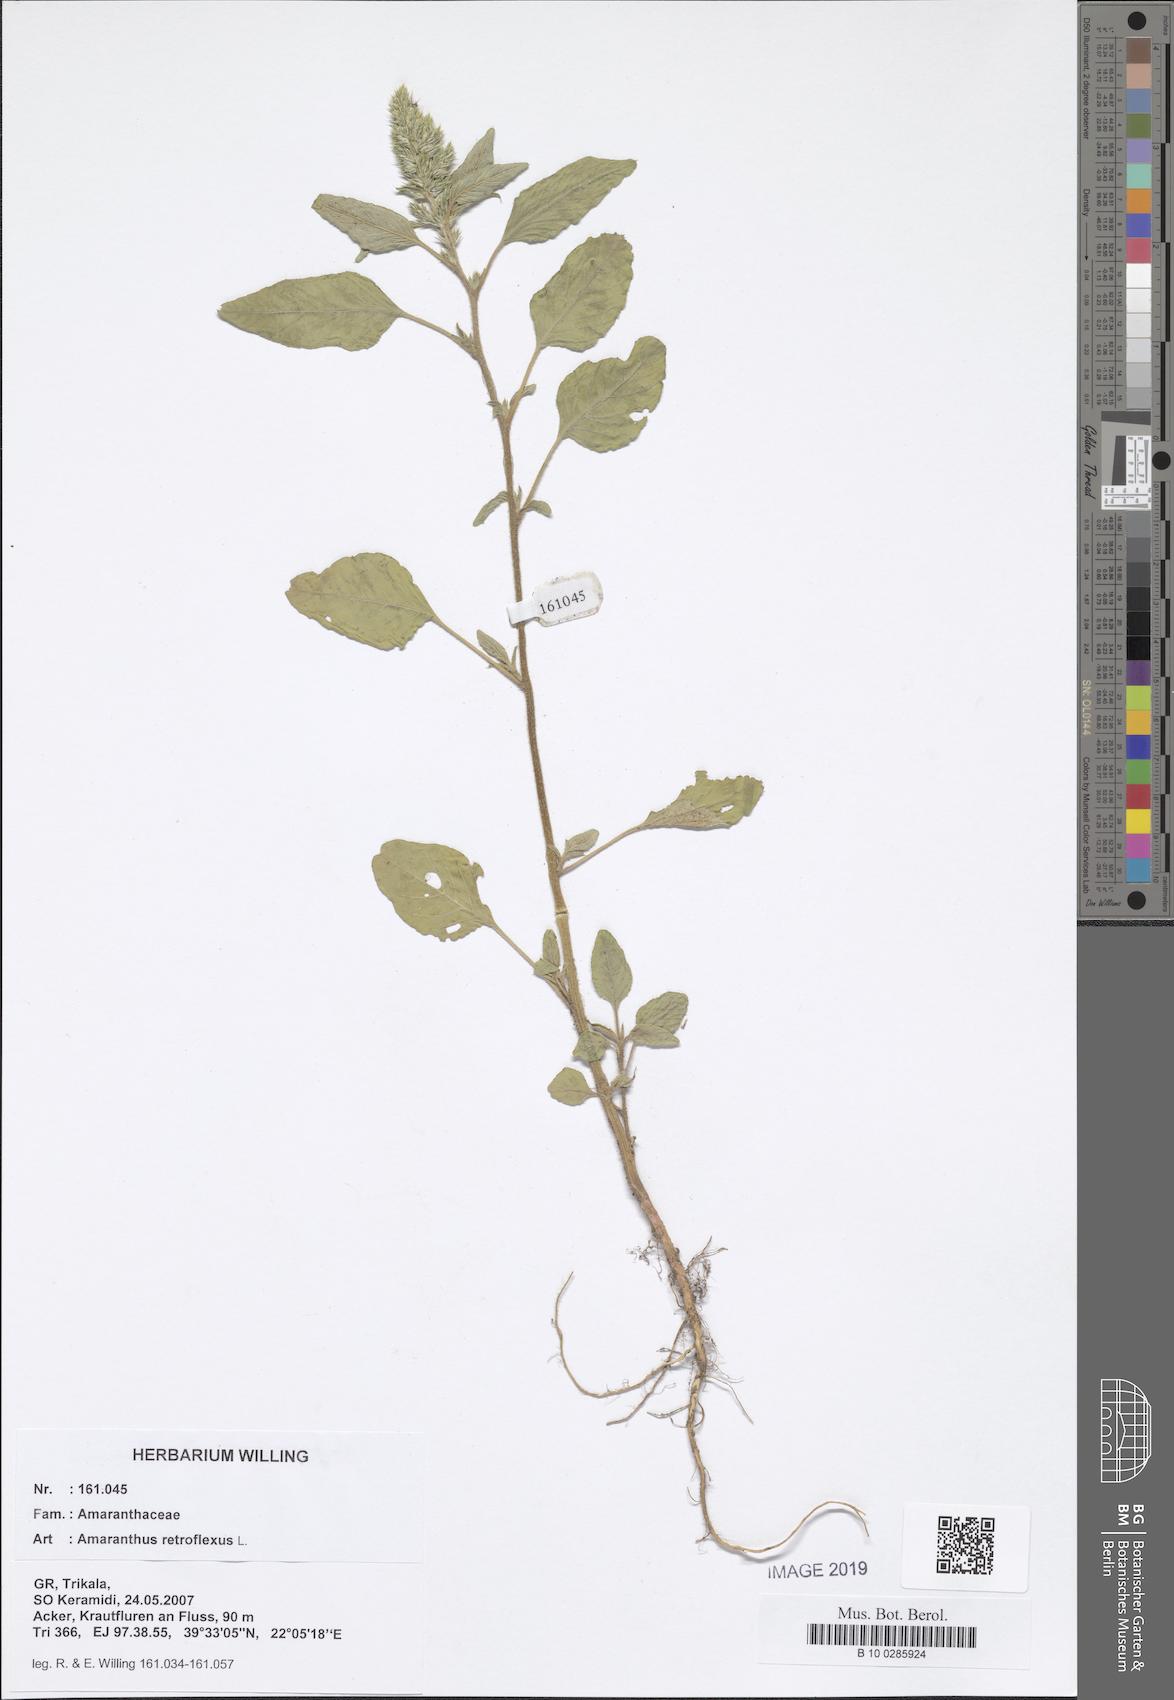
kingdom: Plantae
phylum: Tracheophyta
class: Magnoliopsida
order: Caryophyllales
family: Amaranthaceae
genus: Amaranthus
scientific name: Amaranthus retroflexus
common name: Redroot amaranth
